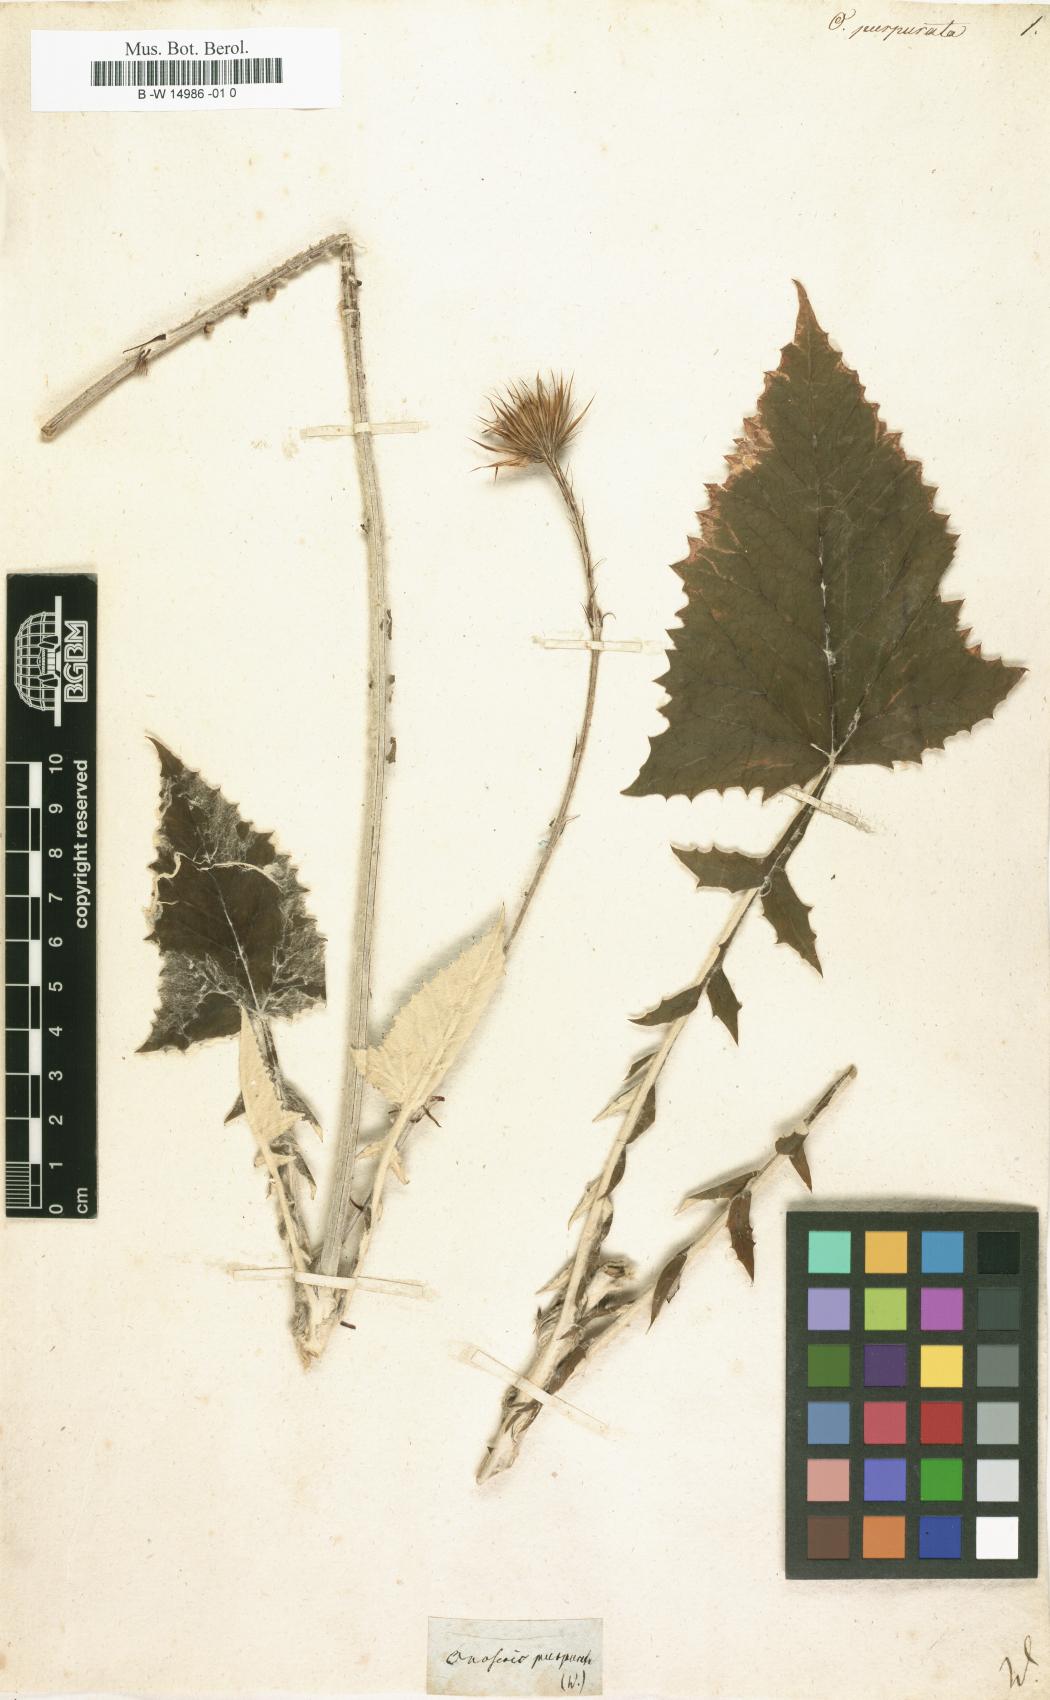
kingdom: Plantae
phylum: Tracheophyta
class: Magnoliopsida
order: Asterales
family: Asteraceae
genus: Onoseris
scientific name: Onoseris purpurata
